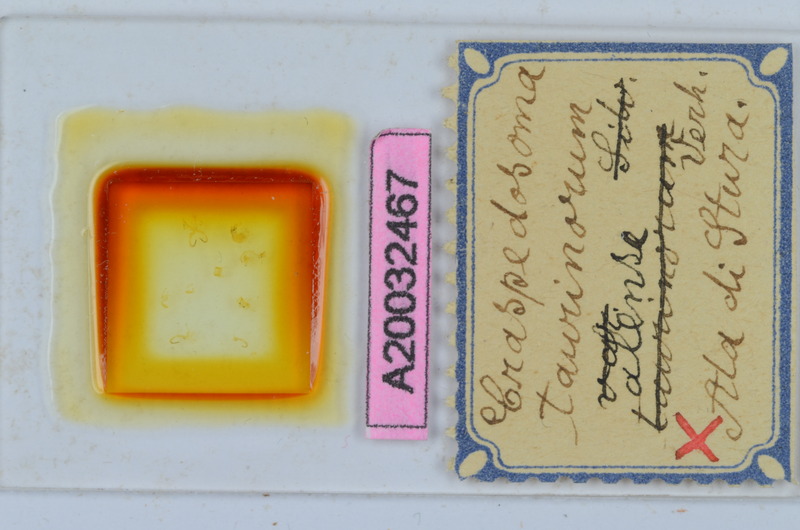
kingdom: Animalia
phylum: Arthropoda
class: Diplopoda
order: Chordeumatida
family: Craspedosomatidae
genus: Craspedosoma
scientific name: Craspedosoma taurinorum
